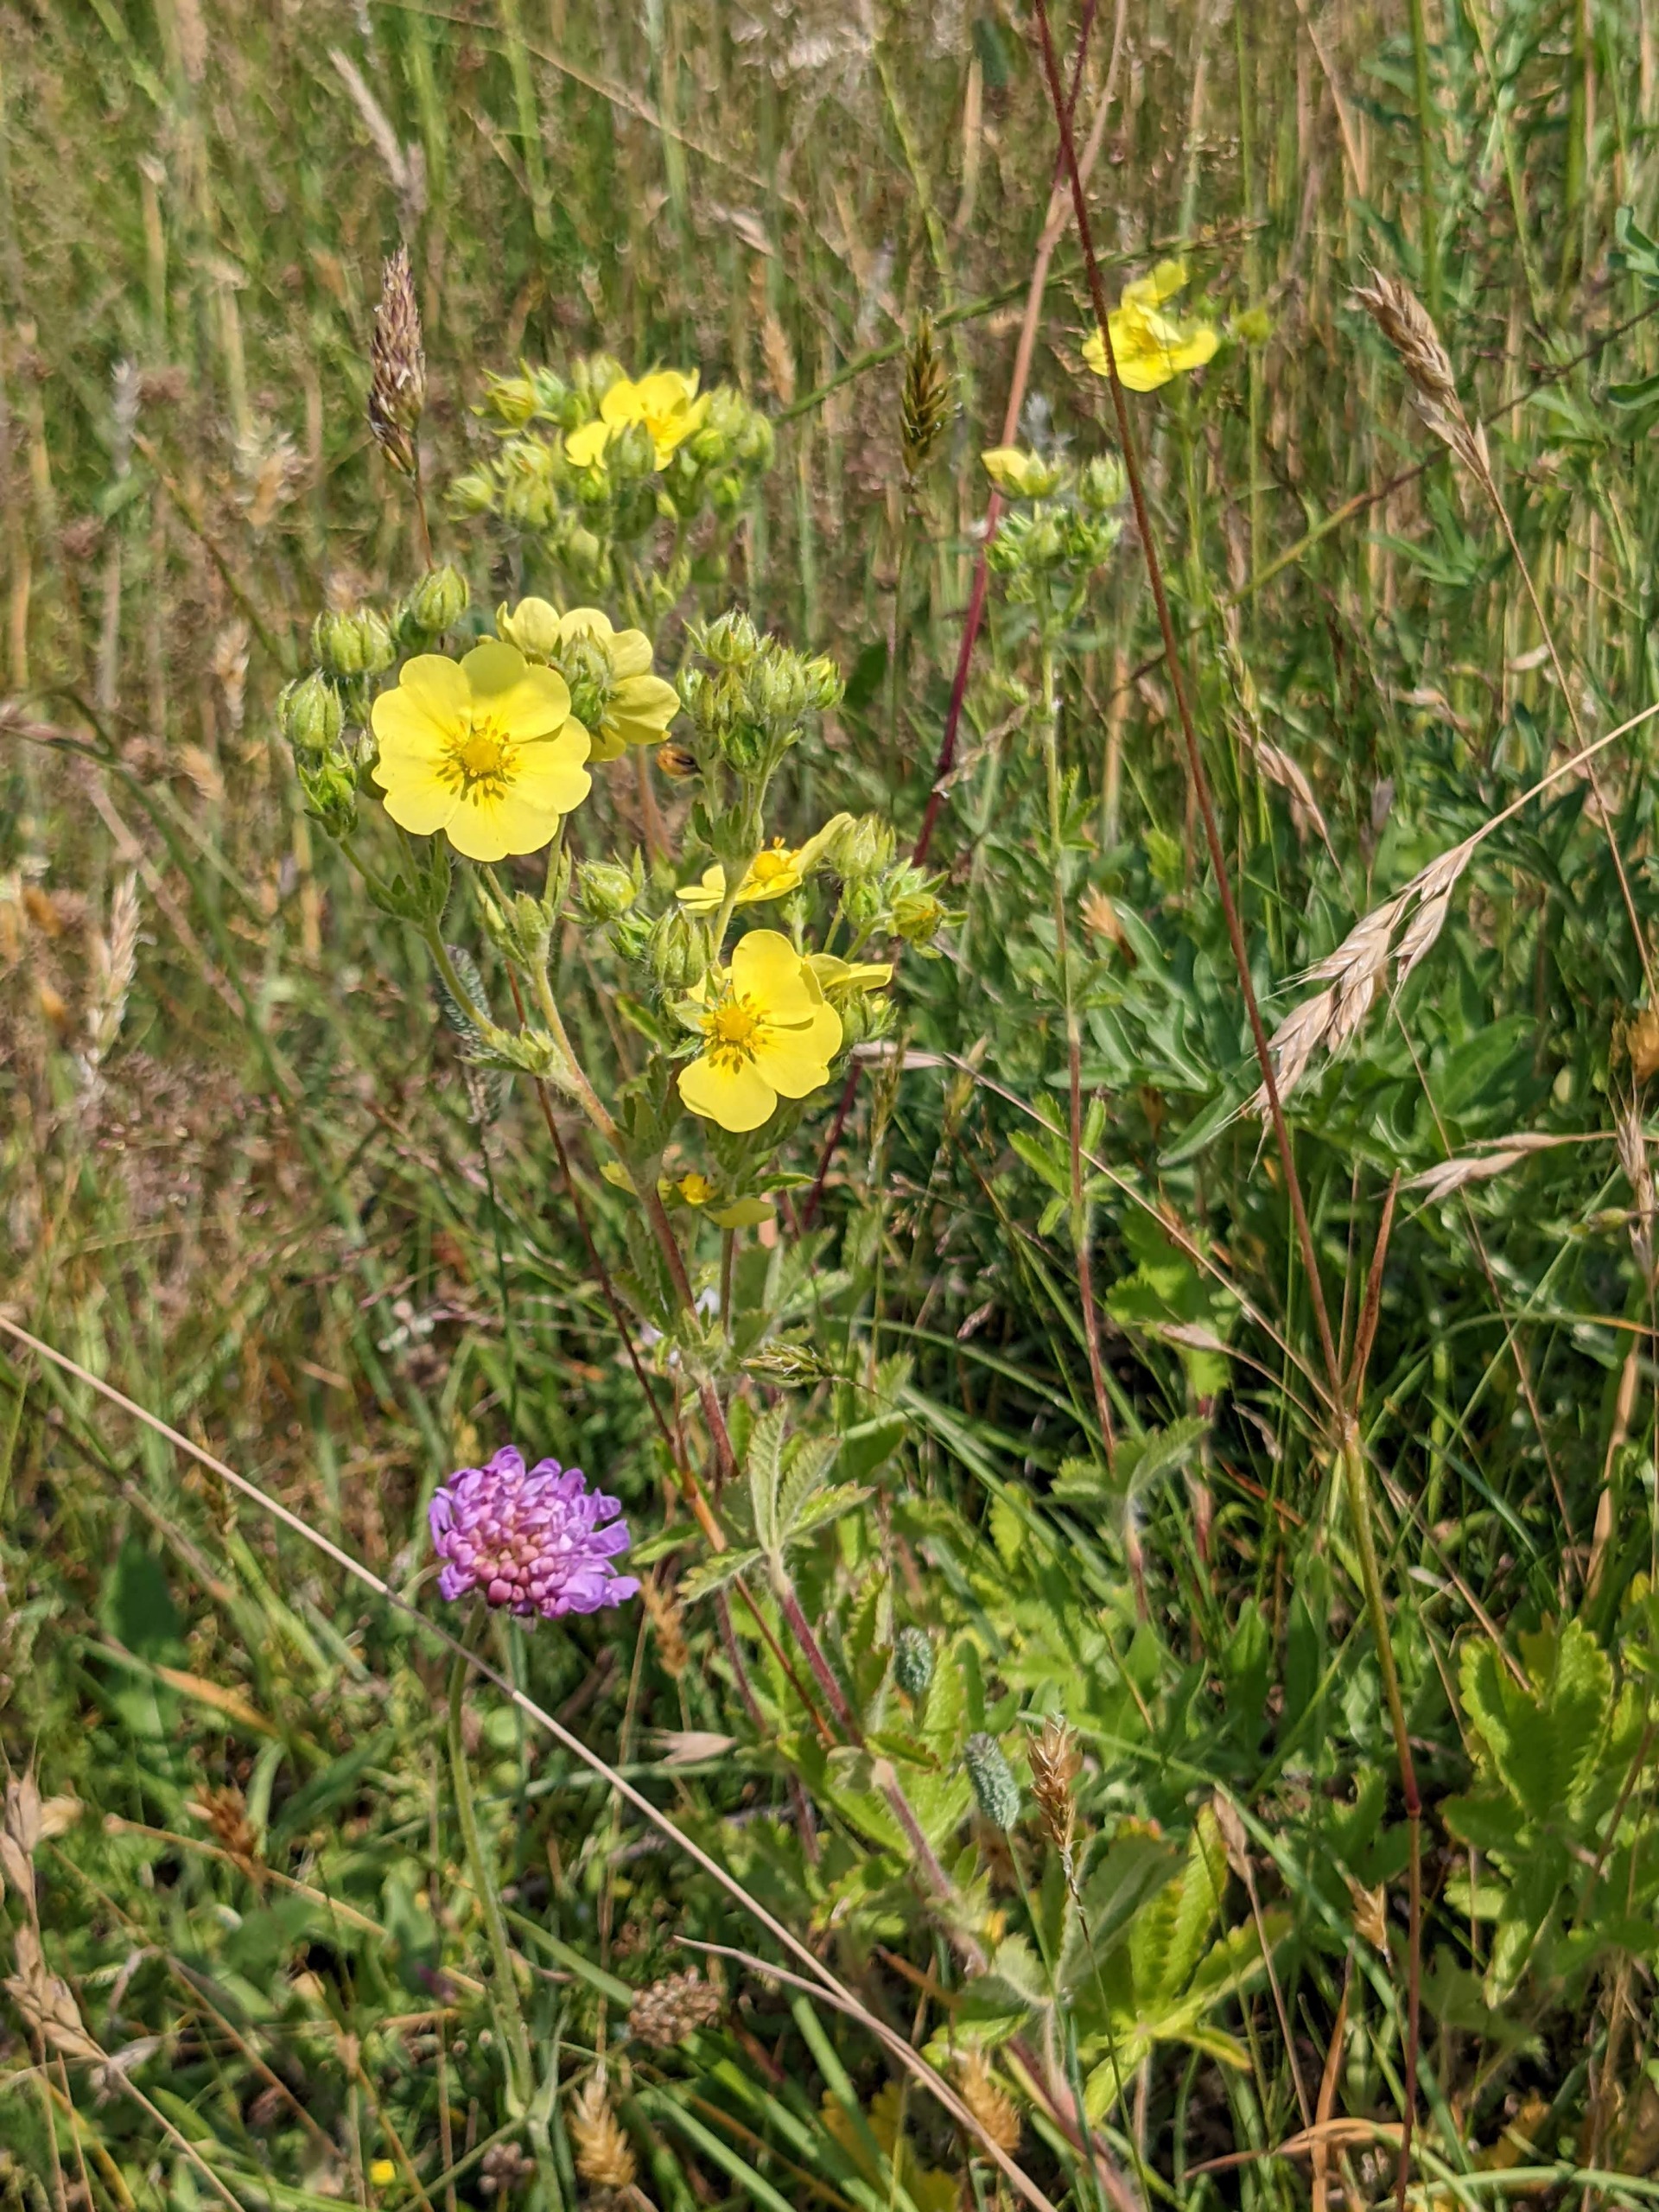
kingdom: Plantae
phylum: Tracheophyta
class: Magnoliopsida
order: Rosales
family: Rosaceae
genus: Potentilla
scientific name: Potentilla recta
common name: Rank potentil
